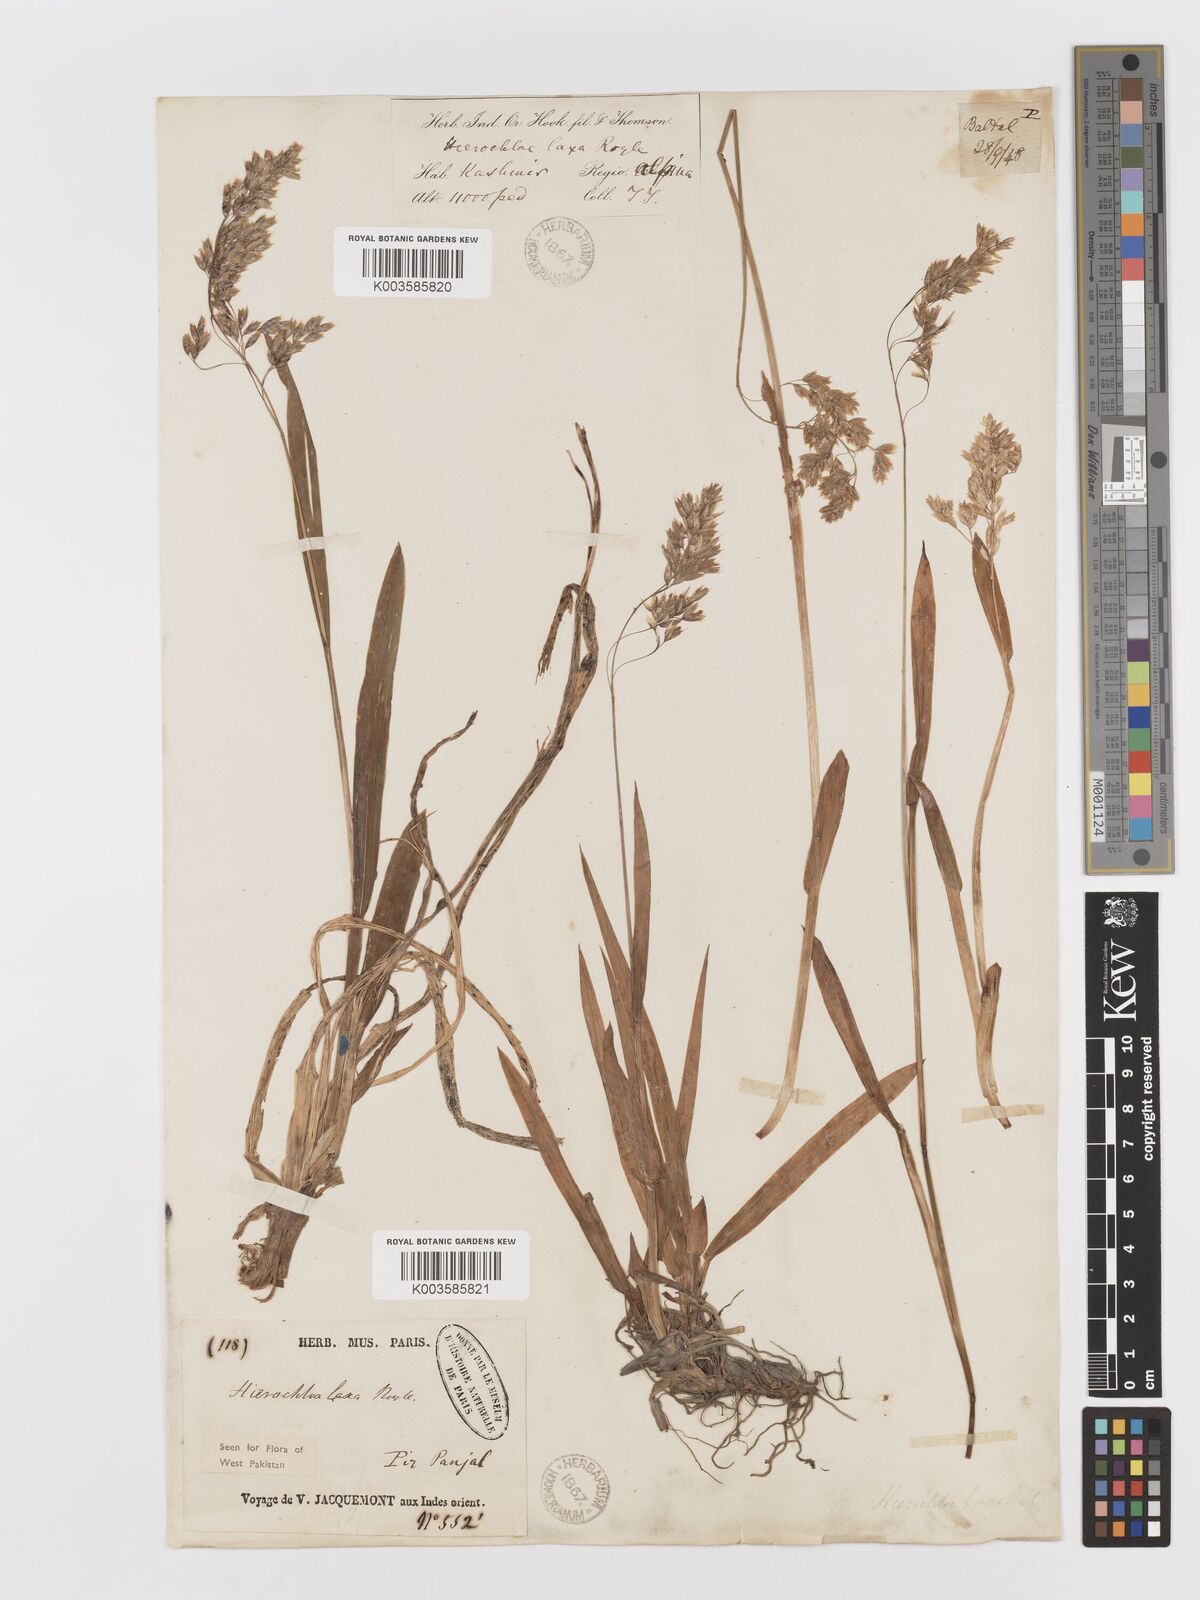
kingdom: Plantae
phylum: Tracheophyta
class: Liliopsida
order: Poales
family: Poaceae
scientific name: Poaceae
